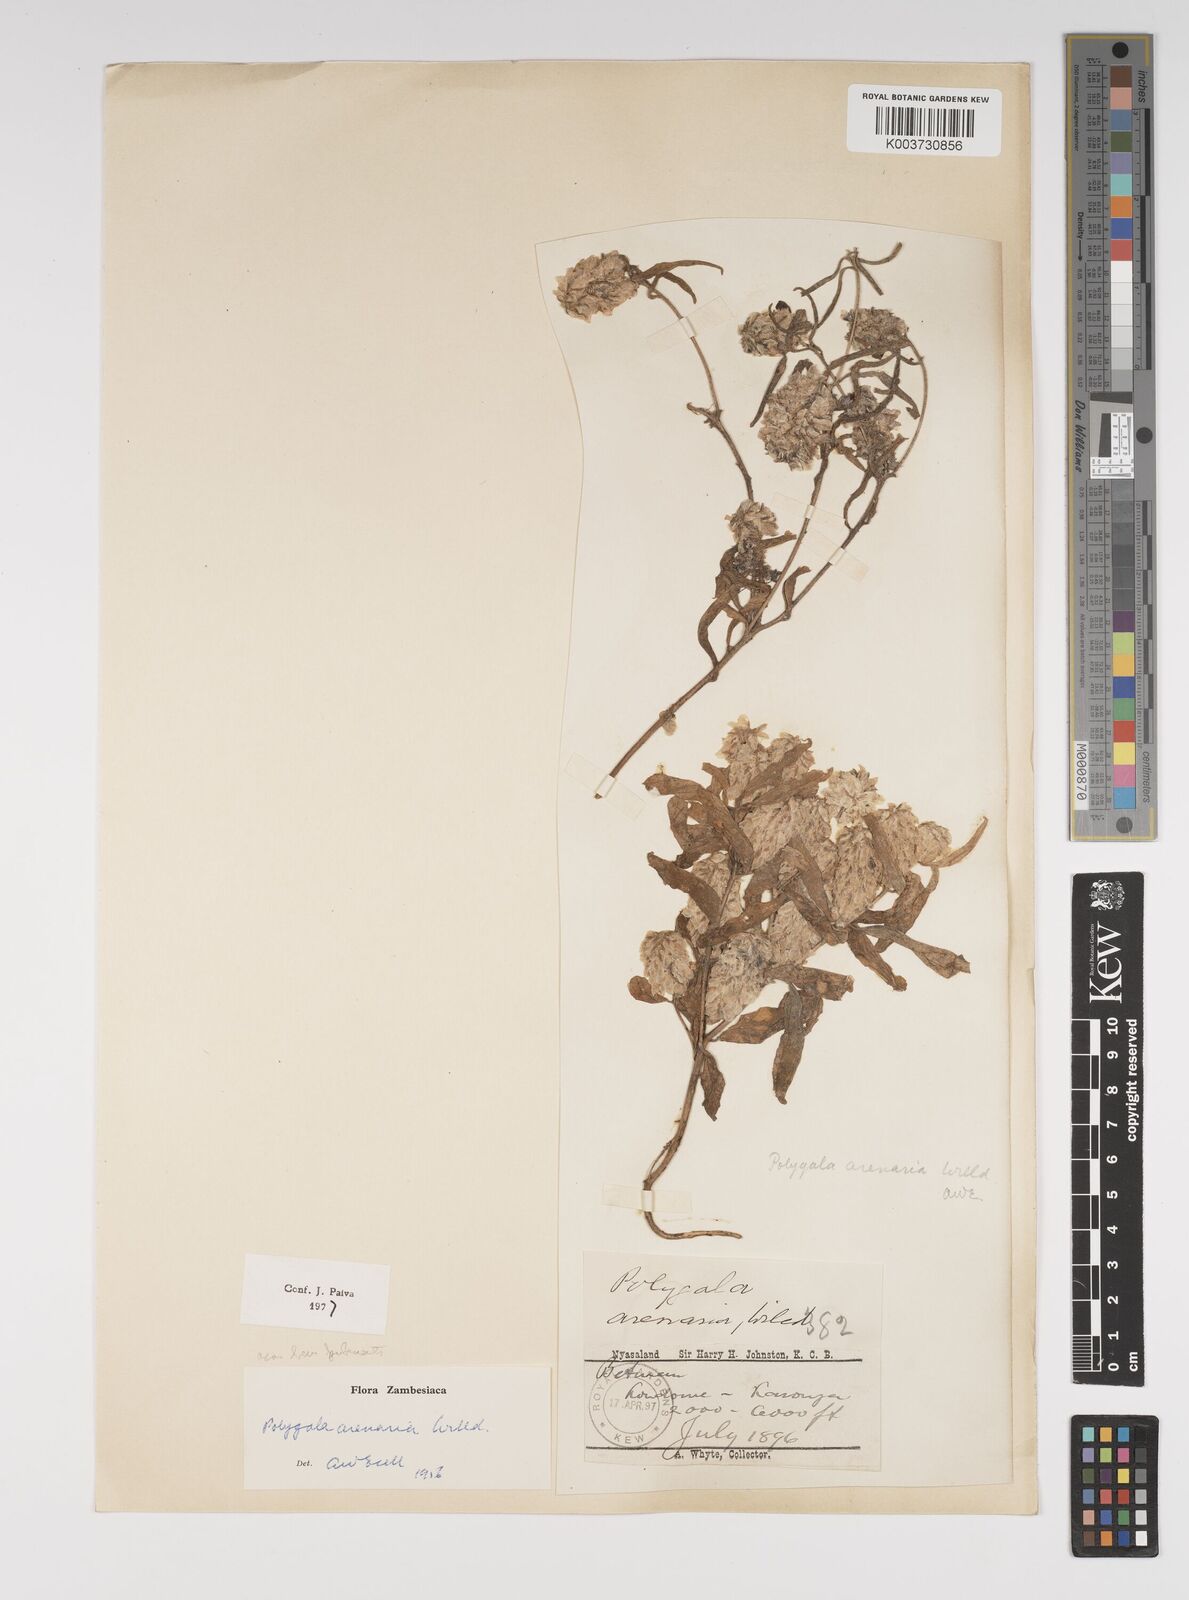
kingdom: Plantae
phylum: Tracheophyta
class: Magnoliopsida
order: Fabales
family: Polygalaceae
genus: Polygala
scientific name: Polygala arenaria
